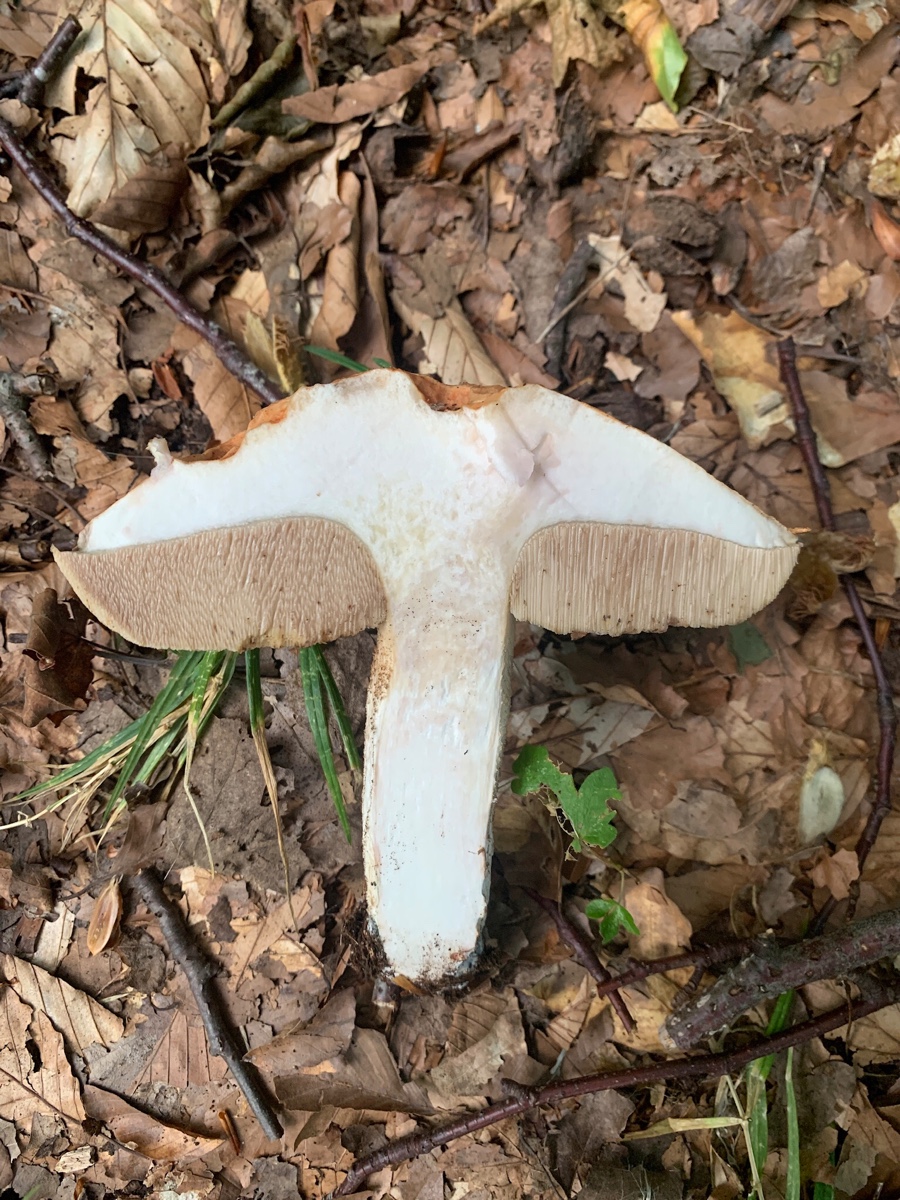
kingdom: Fungi
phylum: Basidiomycota
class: Agaricomycetes
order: Boletales
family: Boletaceae
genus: Leccinum
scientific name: Leccinum albostipitatum
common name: aspe-skælrørhat
